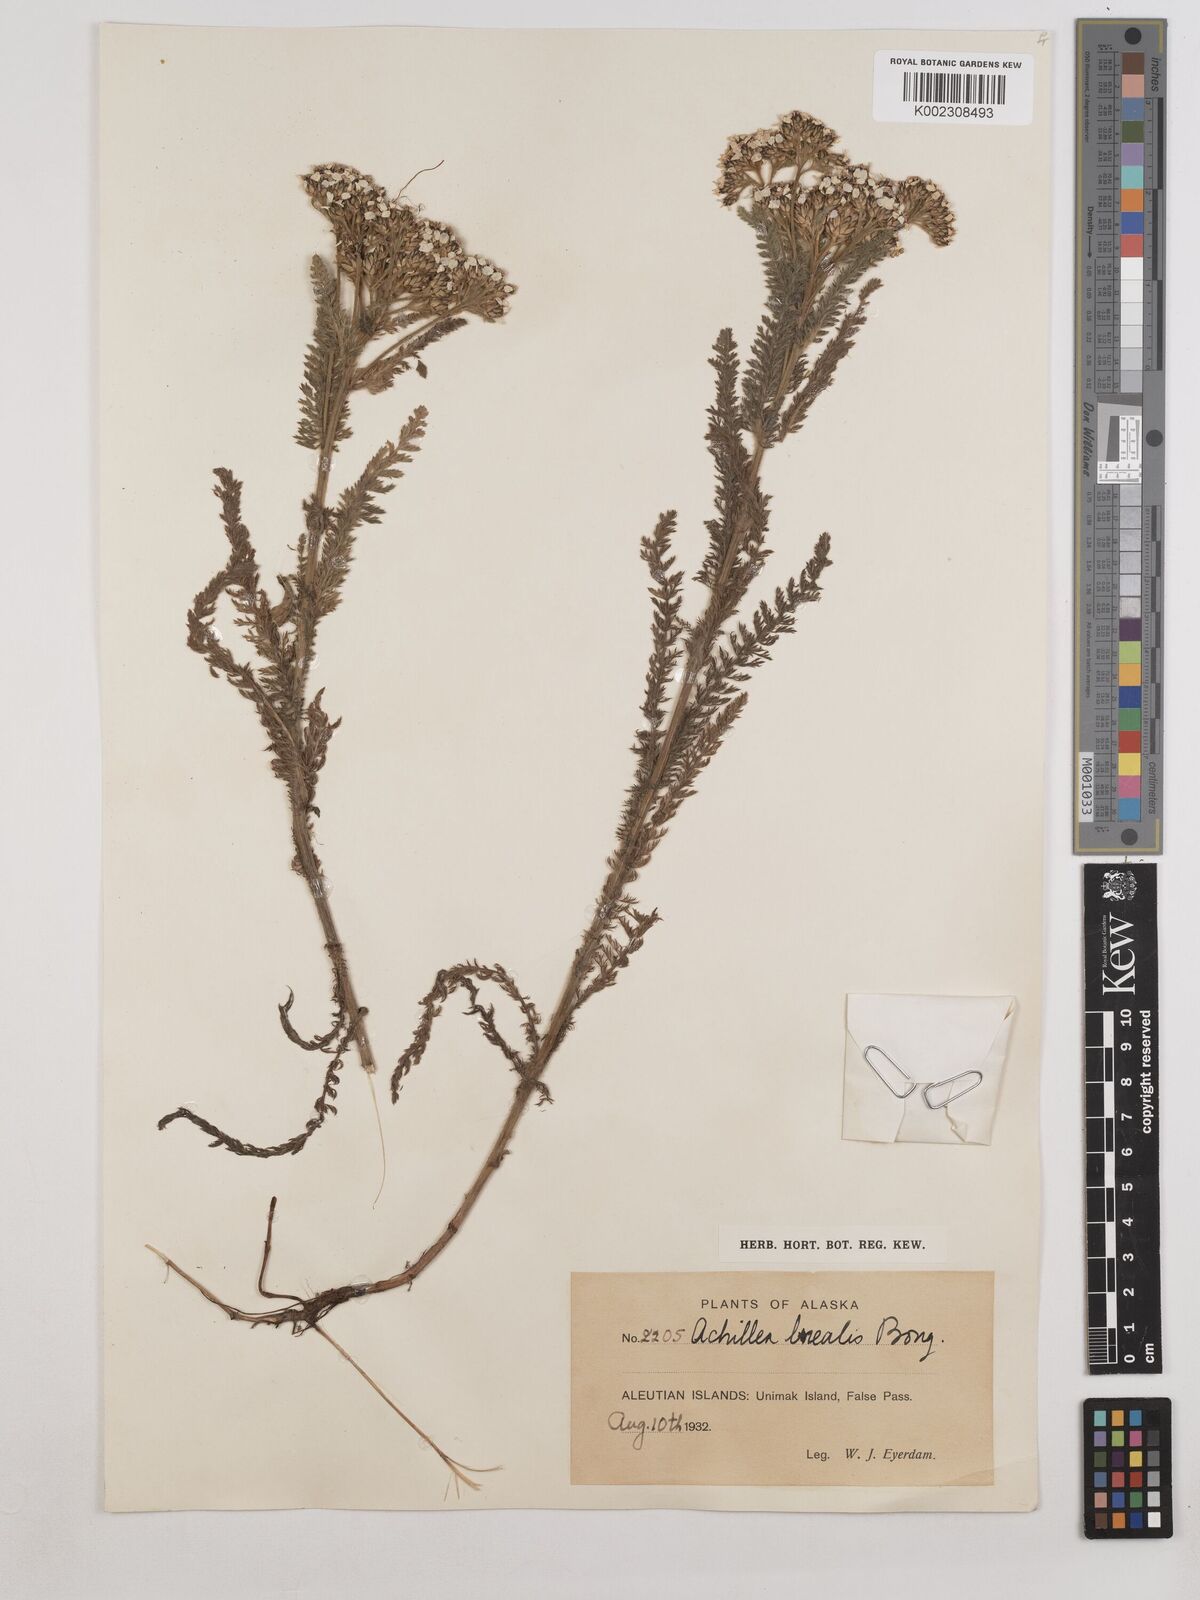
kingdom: Plantae
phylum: Tracheophyta
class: Magnoliopsida
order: Asterales
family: Asteraceae
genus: Achillea
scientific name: Achillea millefolium
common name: Yarrow
